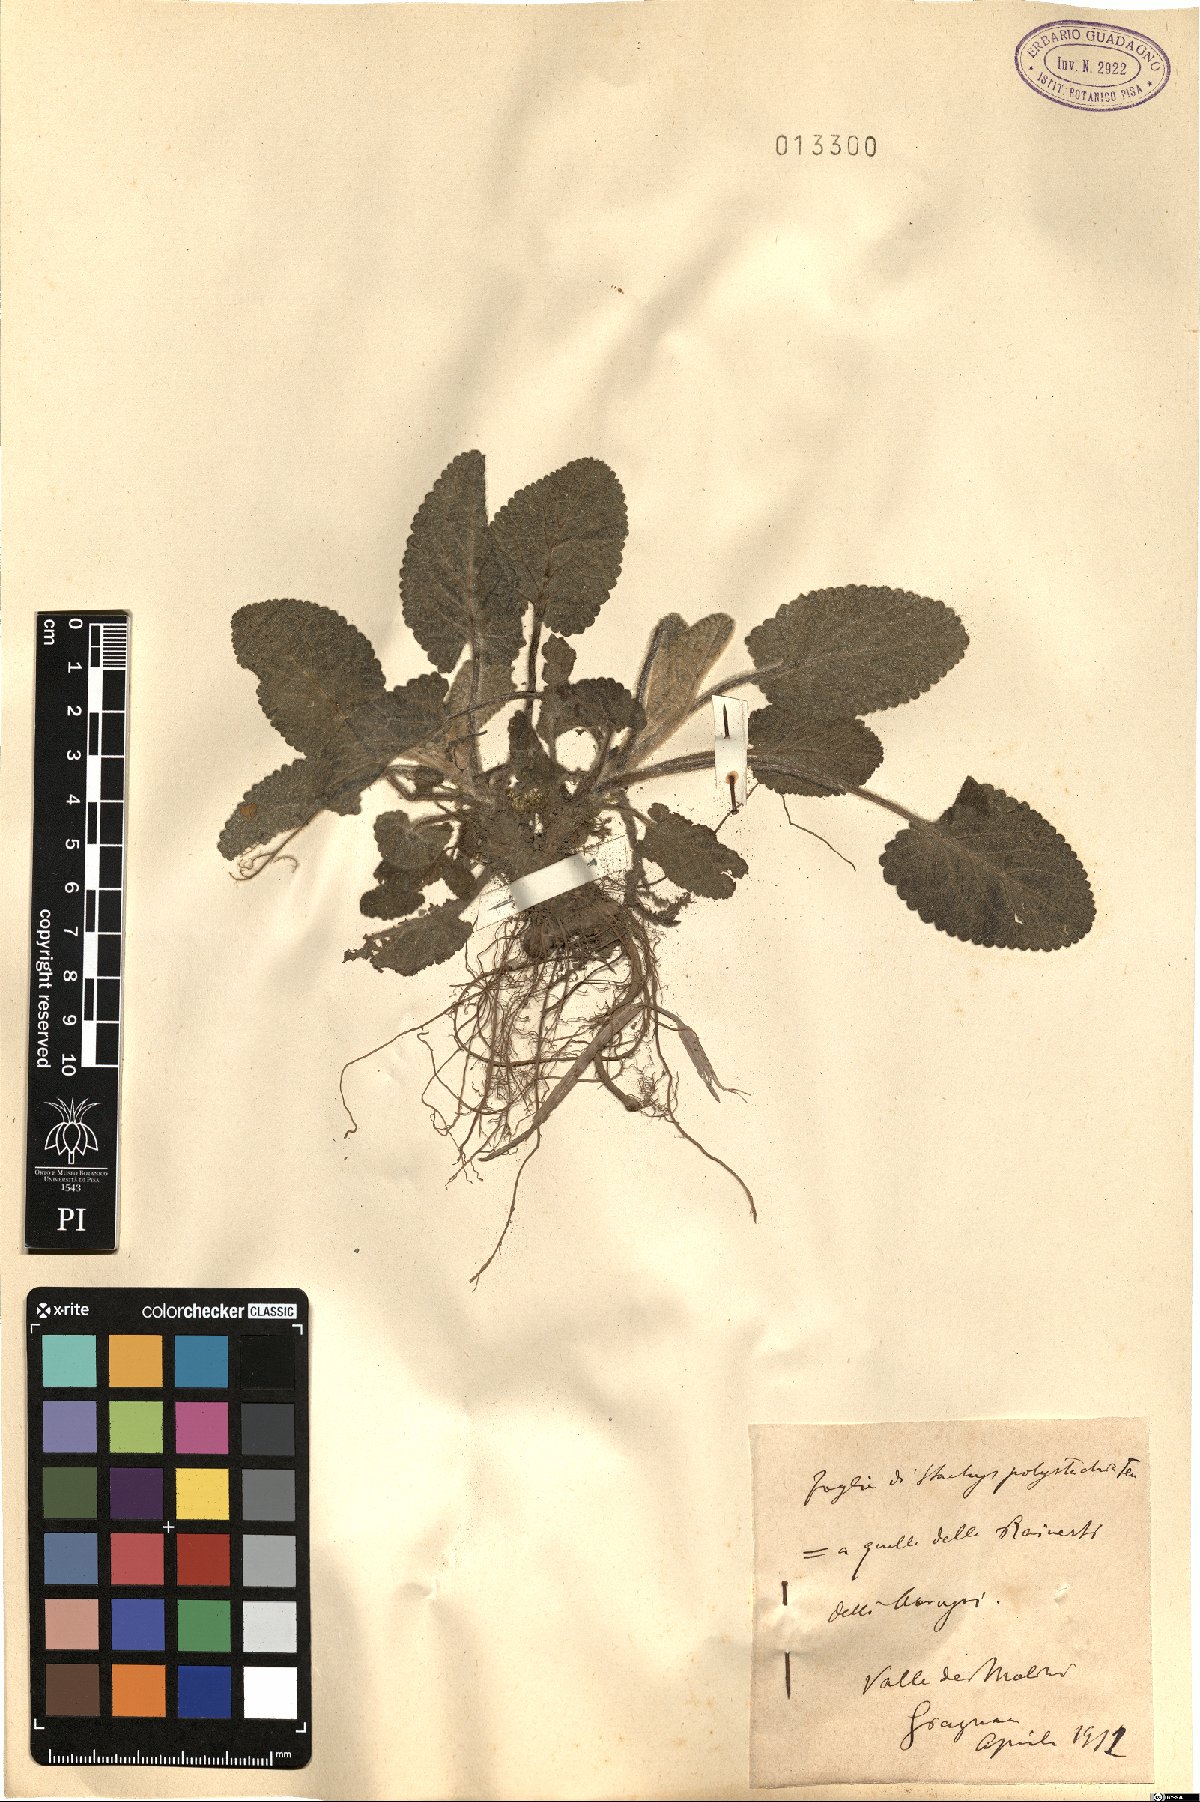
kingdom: Plantae
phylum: Tracheophyta
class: Magnoliopsida
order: Lamiales
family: Lamiaceae
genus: Stachys
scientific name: Stachys germanica
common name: Downy woundwort
